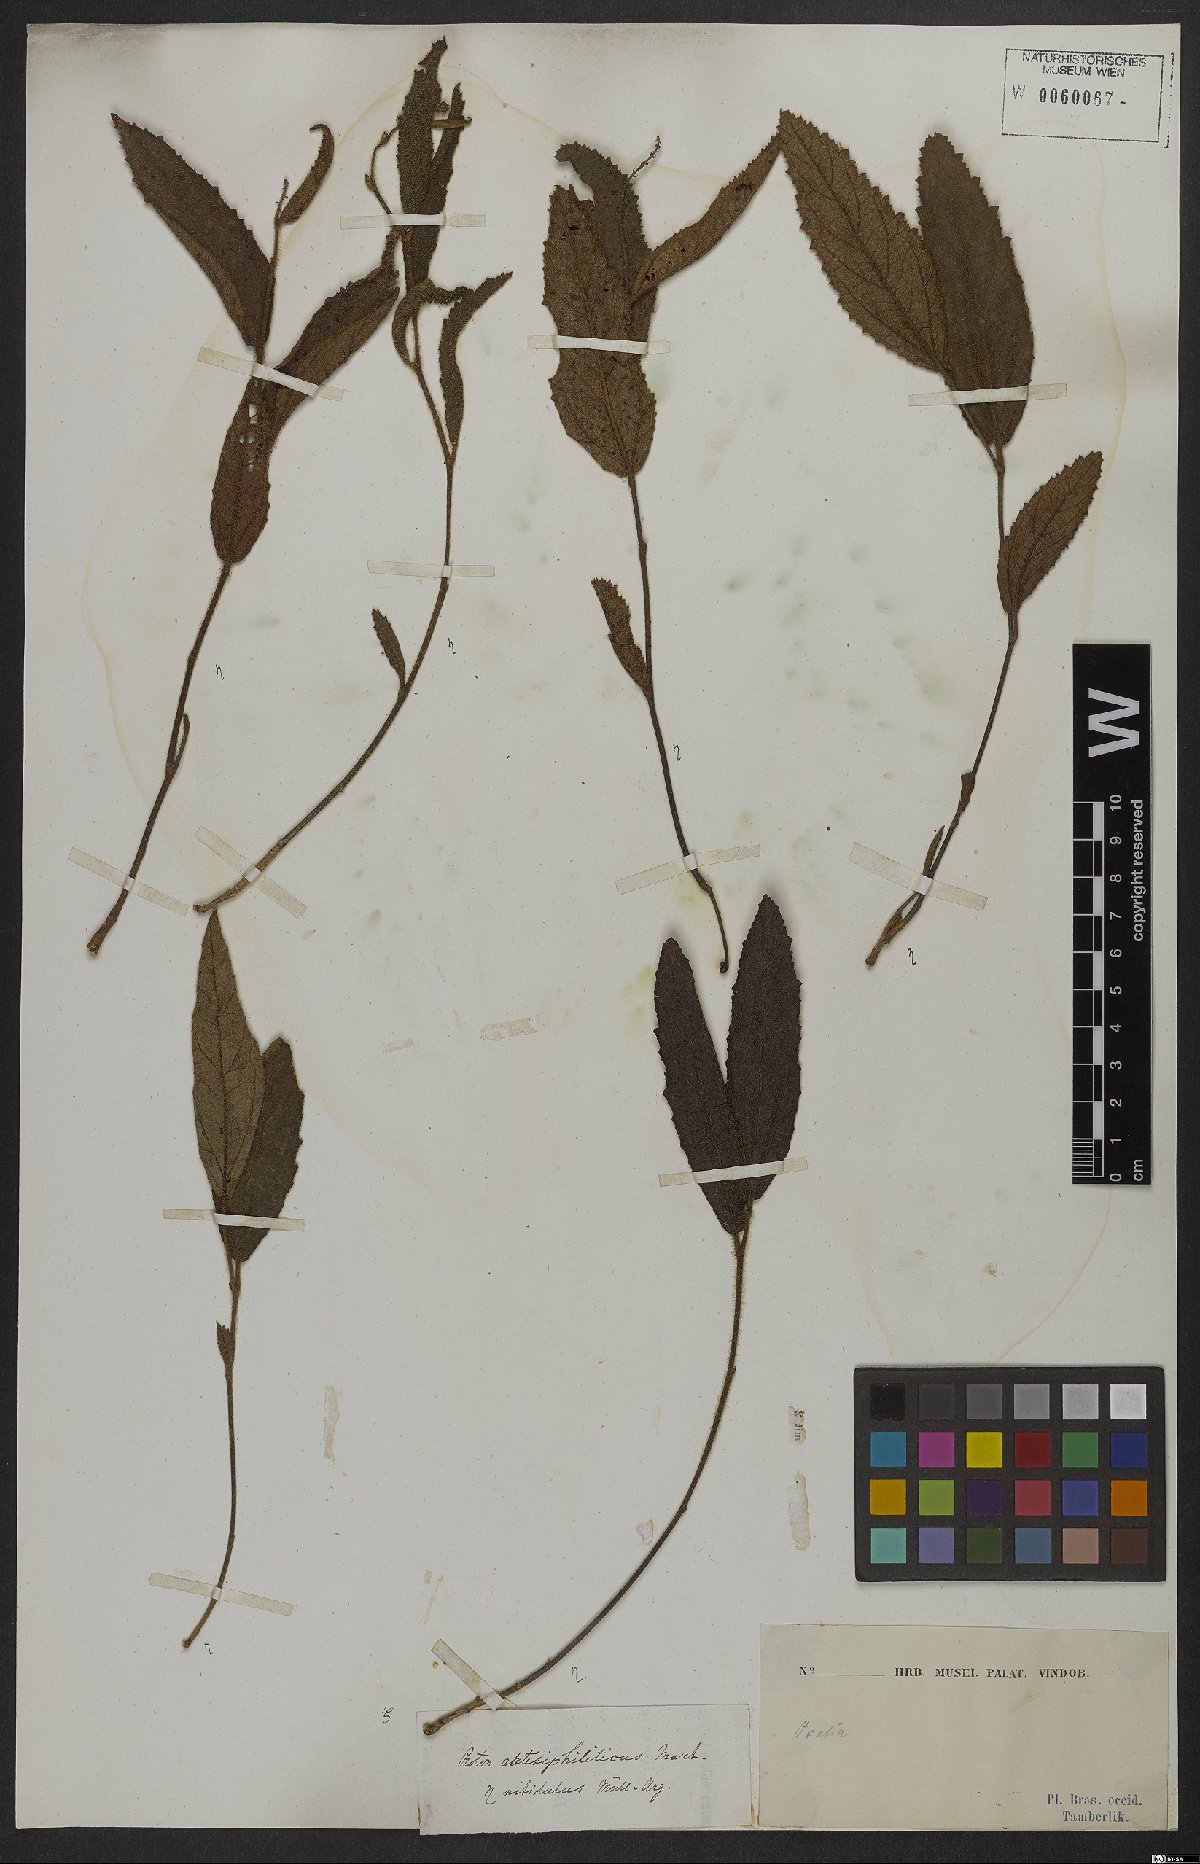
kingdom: Plantae
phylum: Tracheophyta
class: Magnoliopsida
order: Malpighiales
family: Euphorbiaceae
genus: Croton
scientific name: Croton antisyphiliticus
